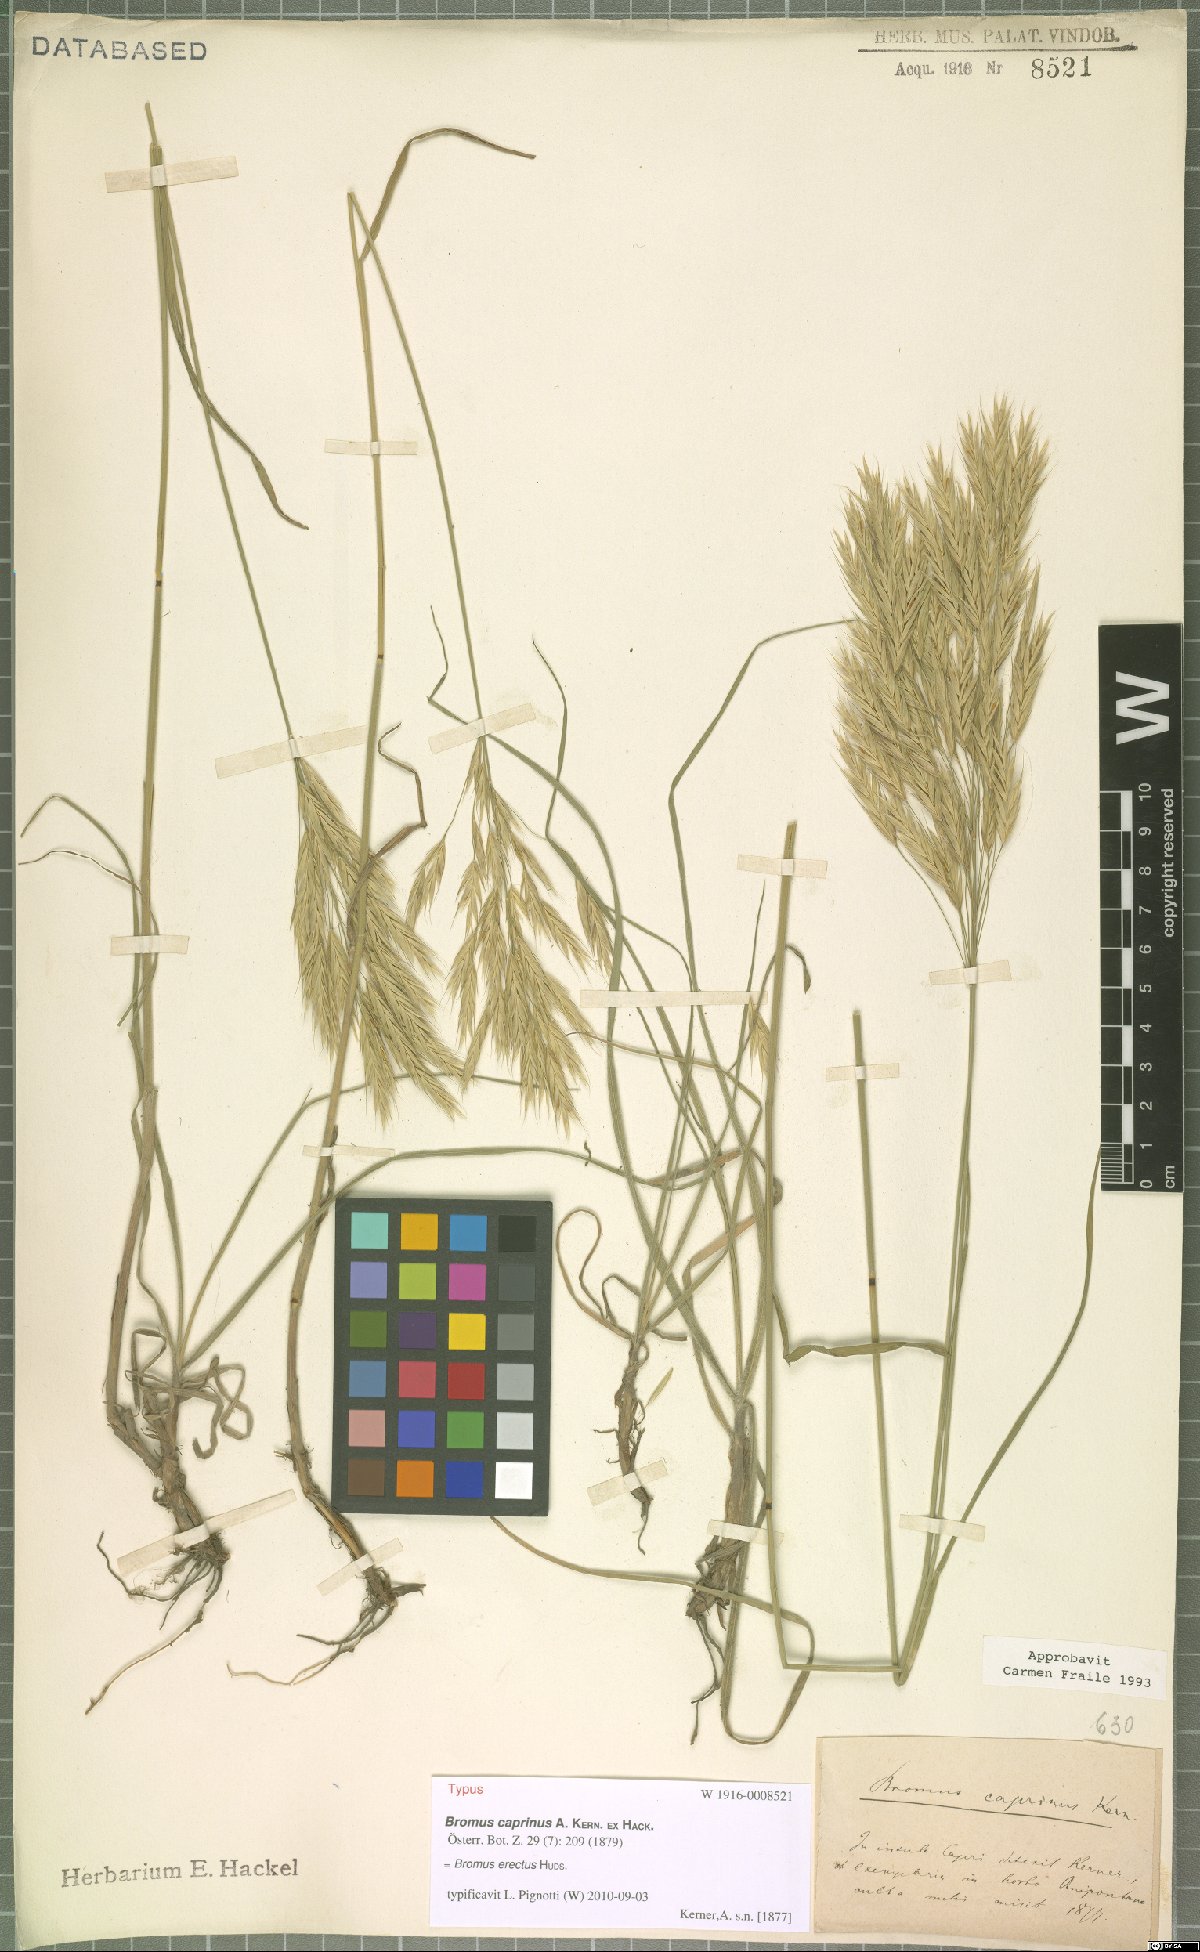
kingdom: Plantae
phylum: Tracheophyta
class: Liliopsida
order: Poales
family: Poaceae
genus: Bromus
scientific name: Bromus erectus
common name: Erect brome
